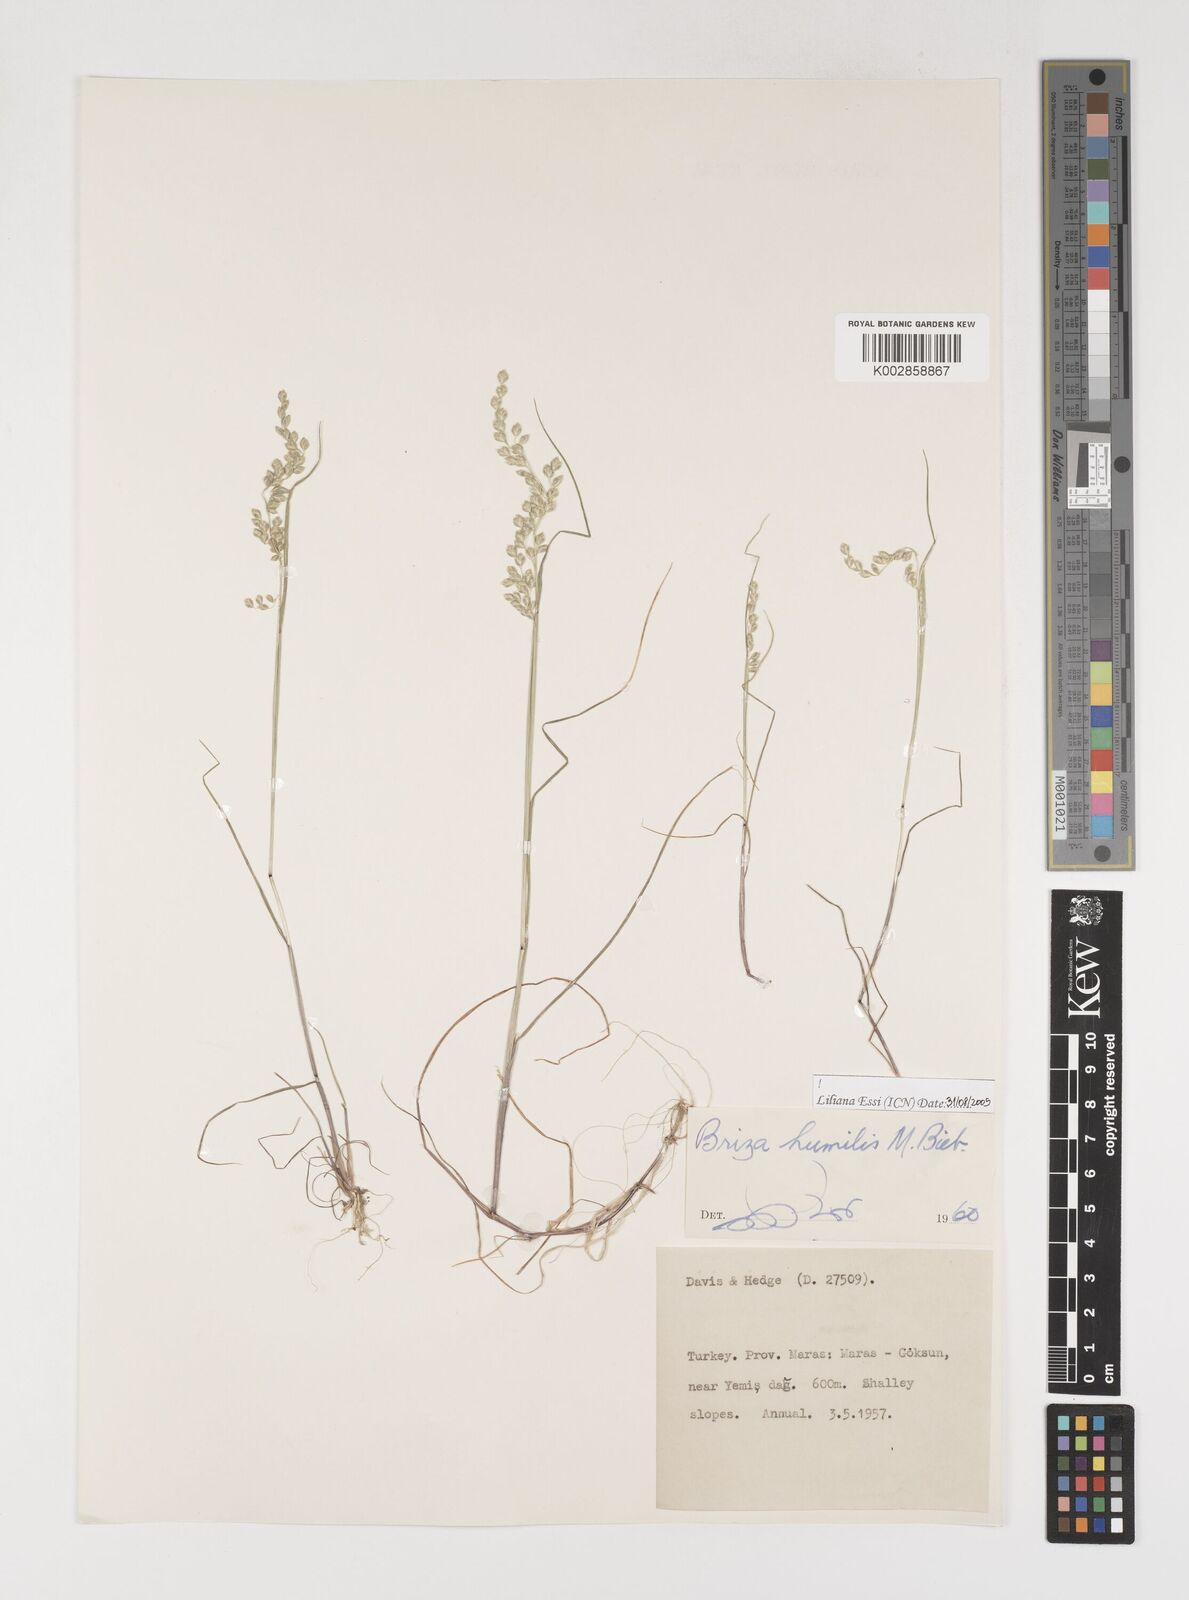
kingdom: Plantae
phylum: Tracheophyta
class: Liliopsida
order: Poales
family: Poaceae
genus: Briza
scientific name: Briza humilis
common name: Spiked quaking grass
